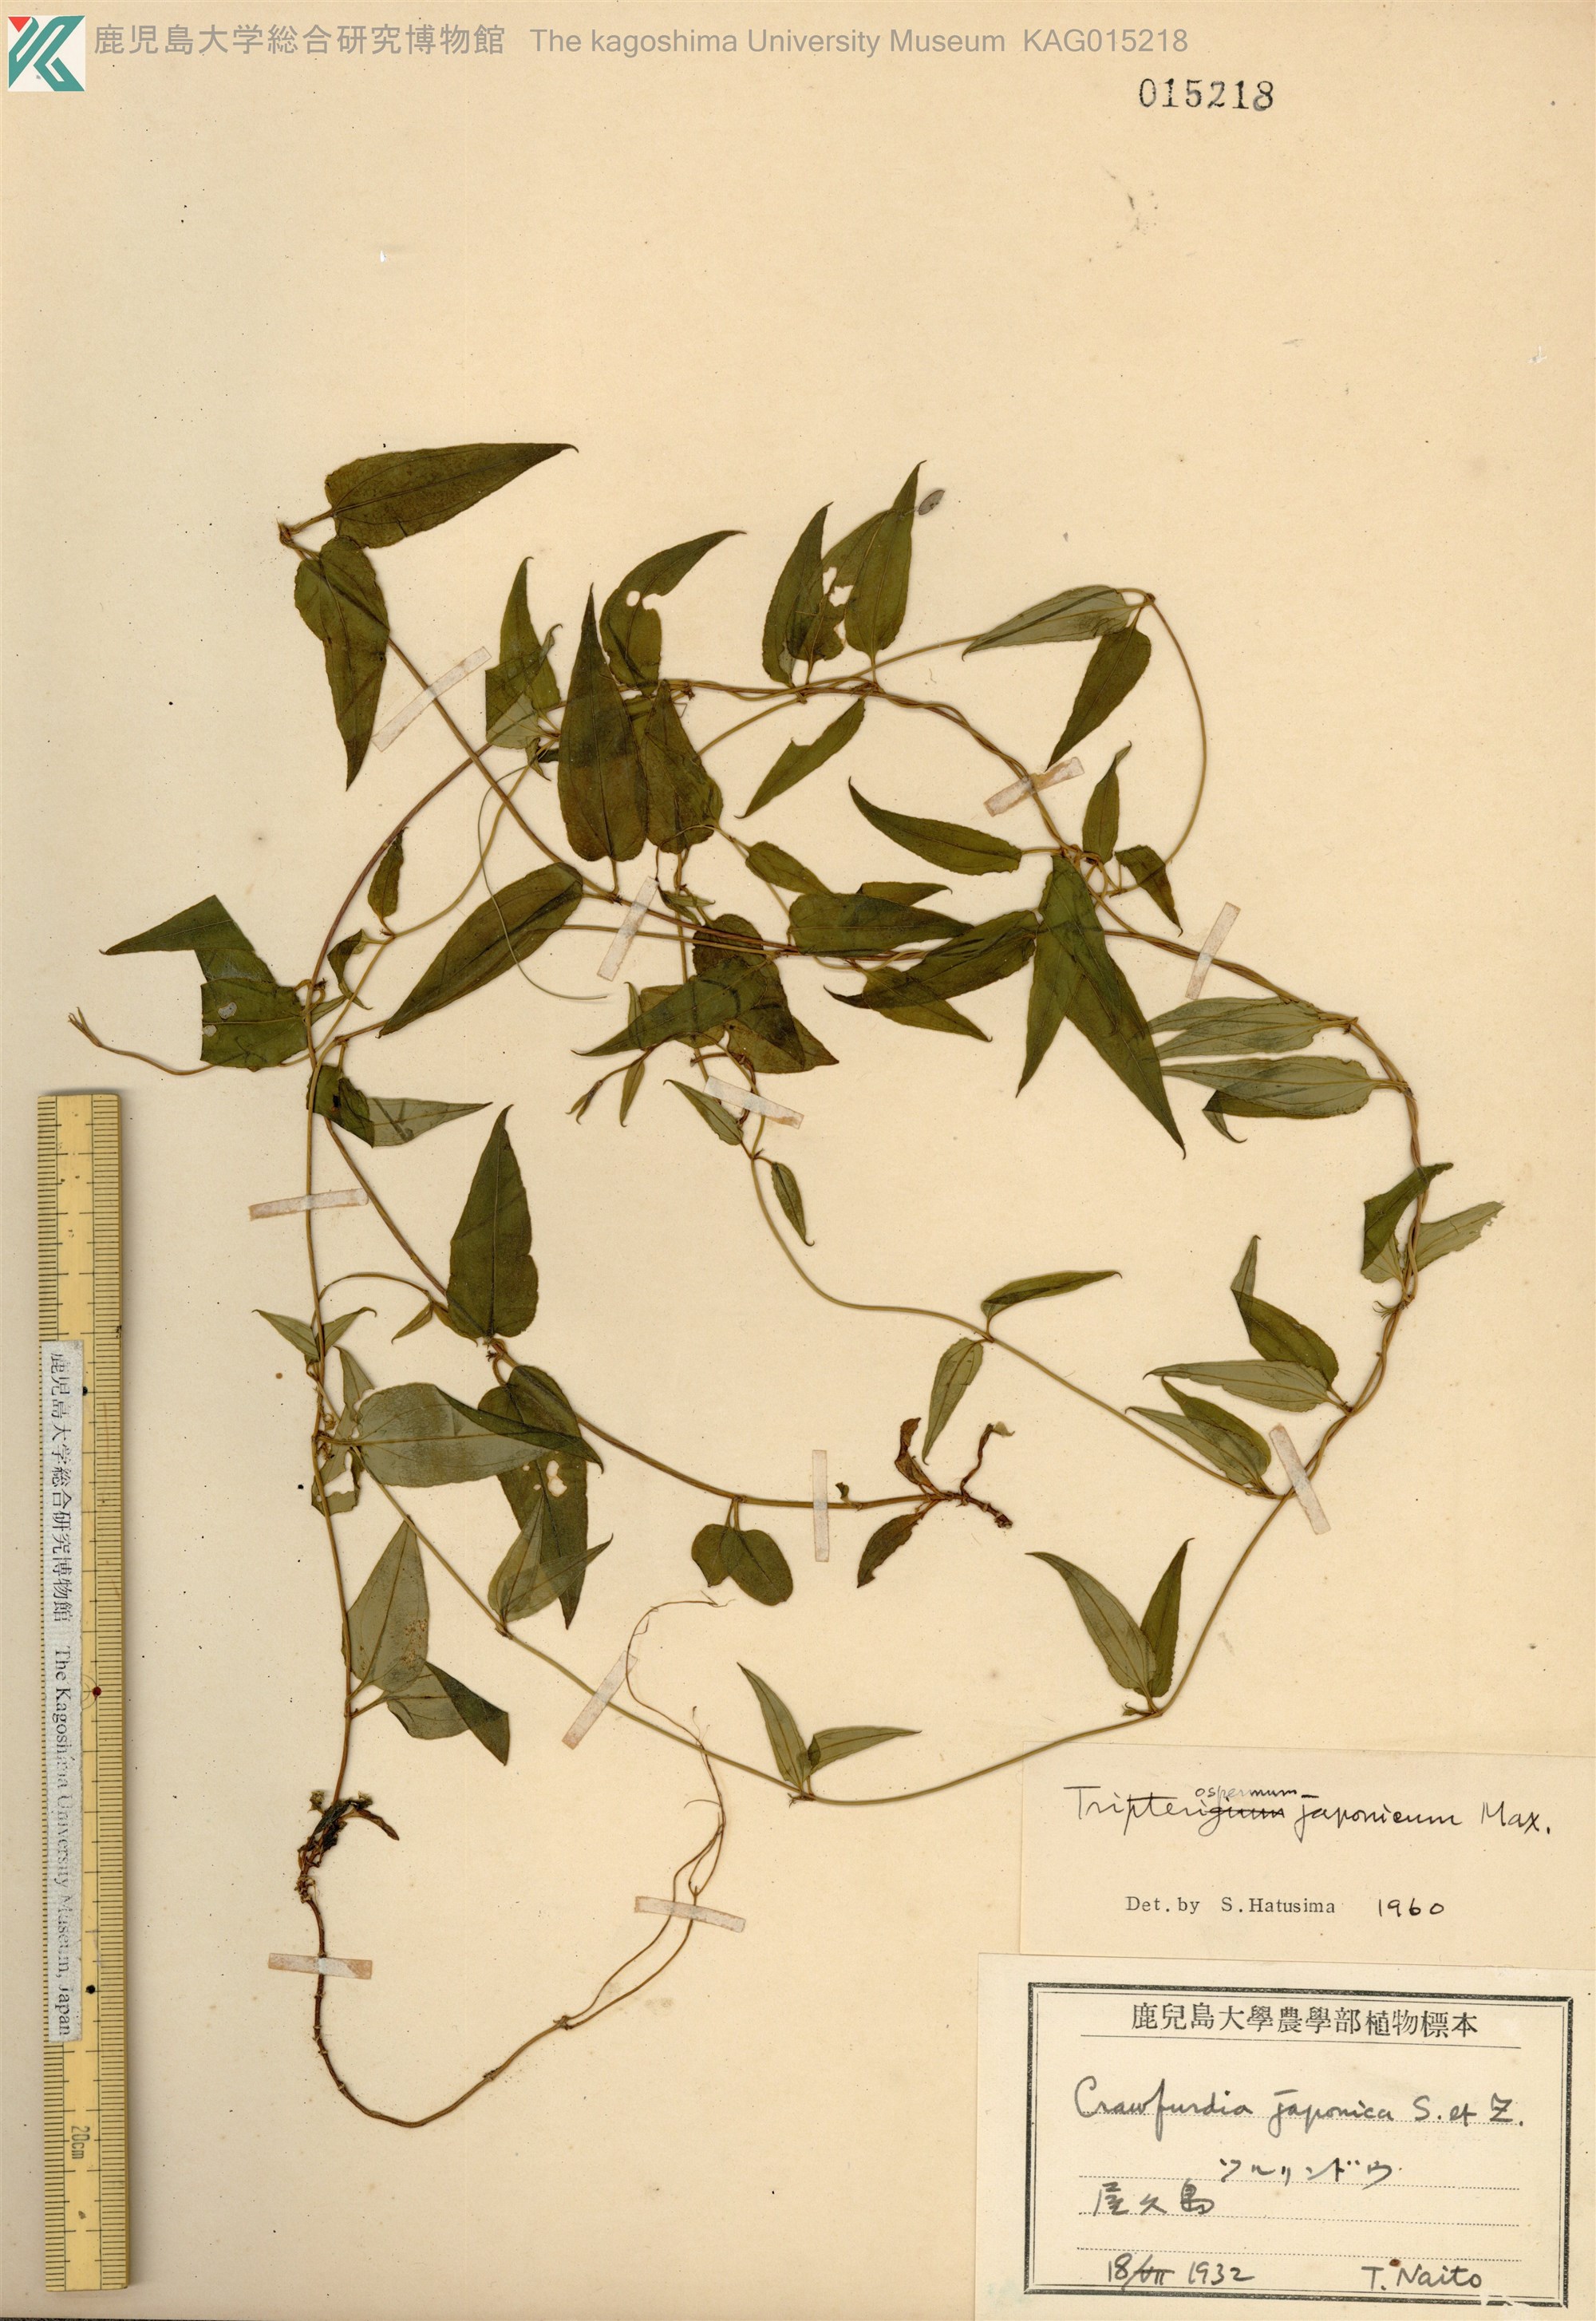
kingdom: Plantae
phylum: Tracheophyta
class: Magnoliopsida
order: Gentianales
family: Gentianaceae
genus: Tripterospermum
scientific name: Tripterospermum trinervium
